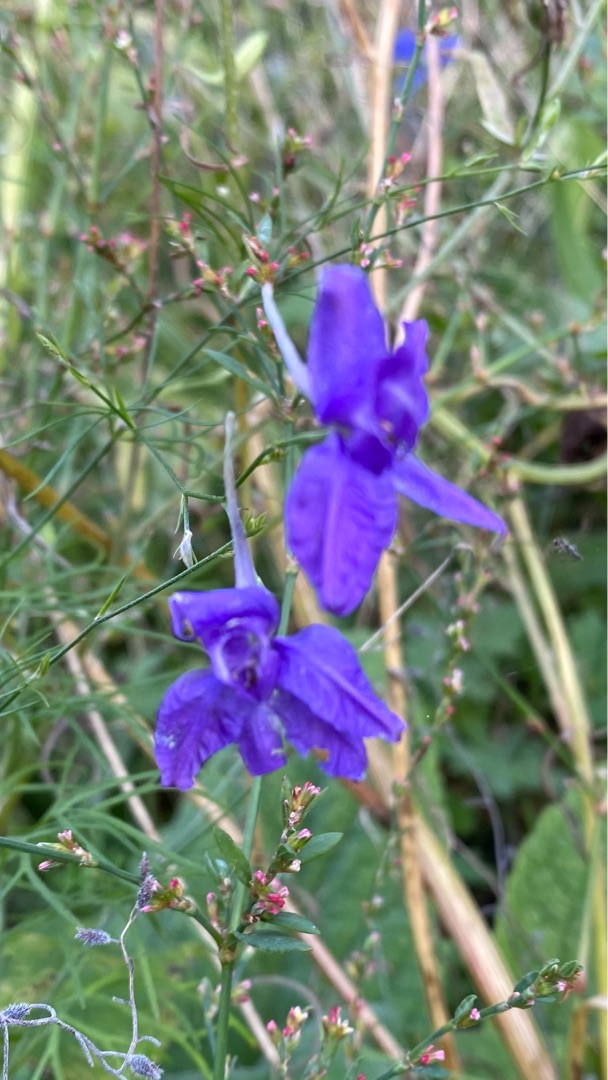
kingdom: Plantae
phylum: Tracheophyta
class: Magnoliopsida
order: Ranunculales
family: Ranunculaceae
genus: Delphinium
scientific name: Delphinium consolida
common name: Korn-ridderspore
